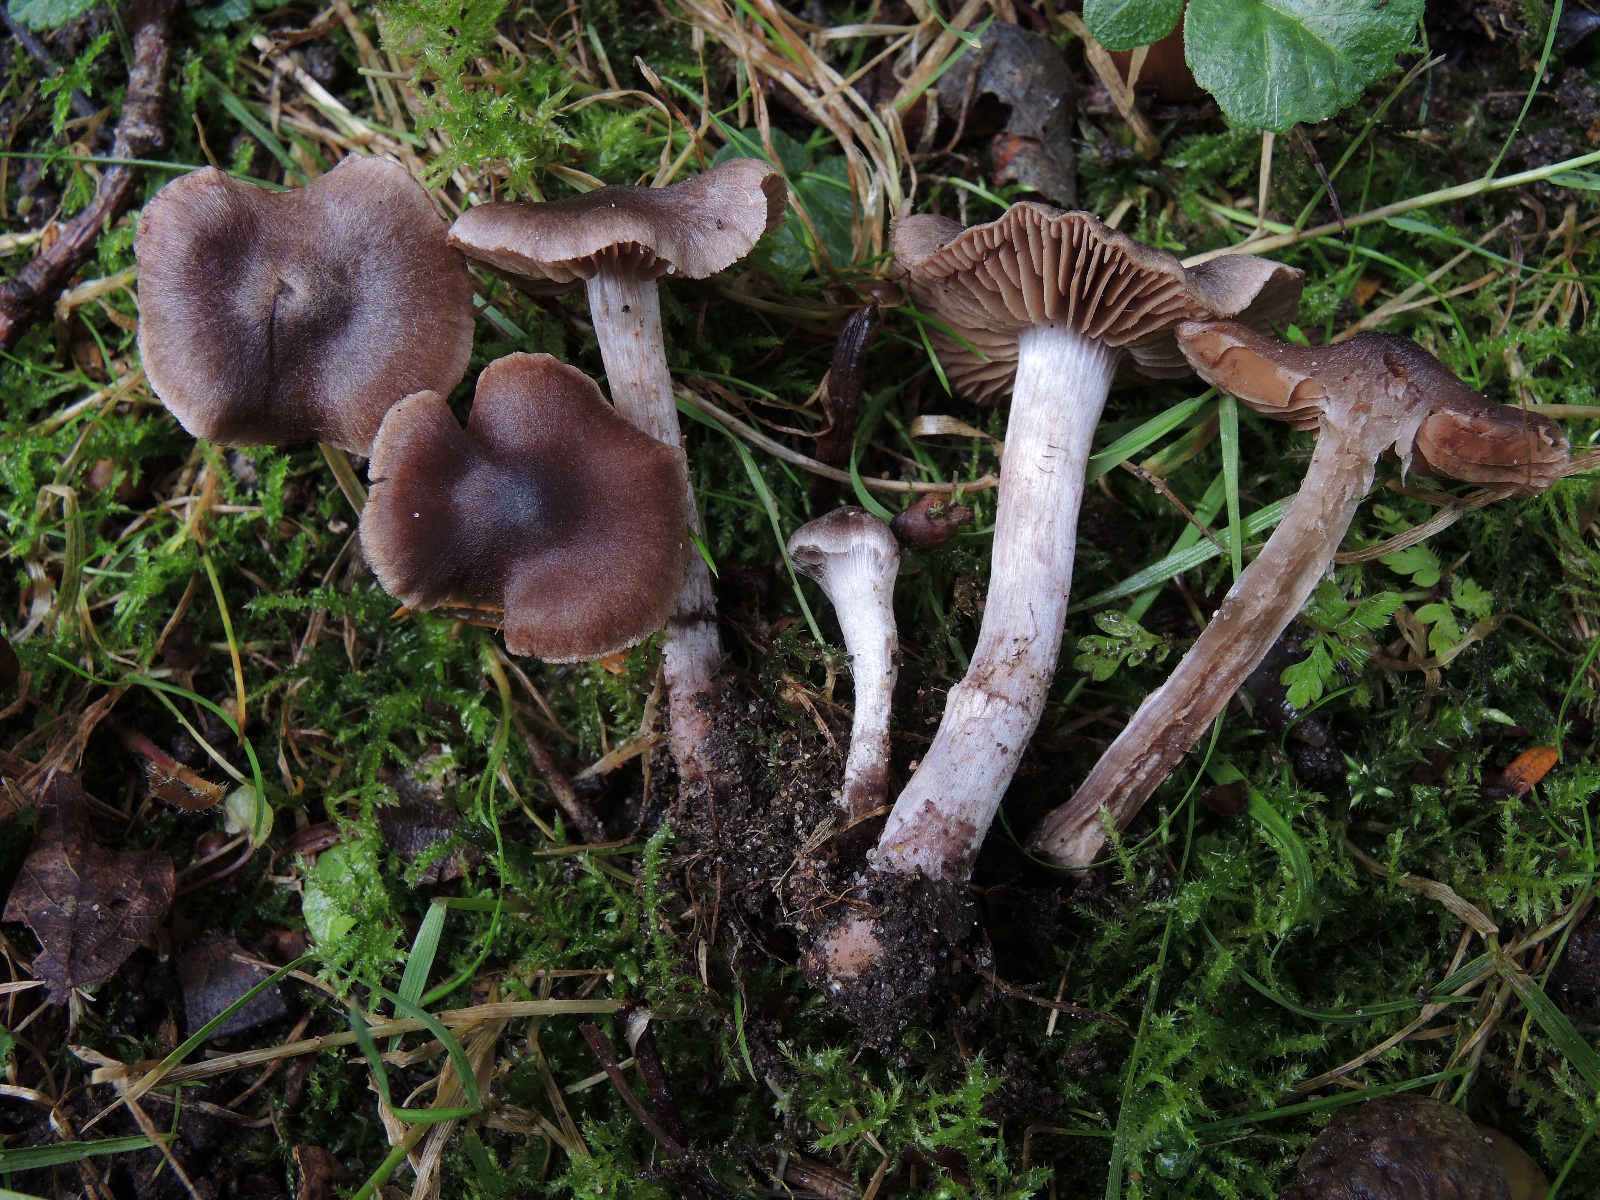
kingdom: Fungi
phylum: Basidiomycota
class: Agaricomycetes
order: Agaricales
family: Cortinariaceae
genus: Cortinarius
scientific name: Cortinarius vernus
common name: sommer-slørhat
